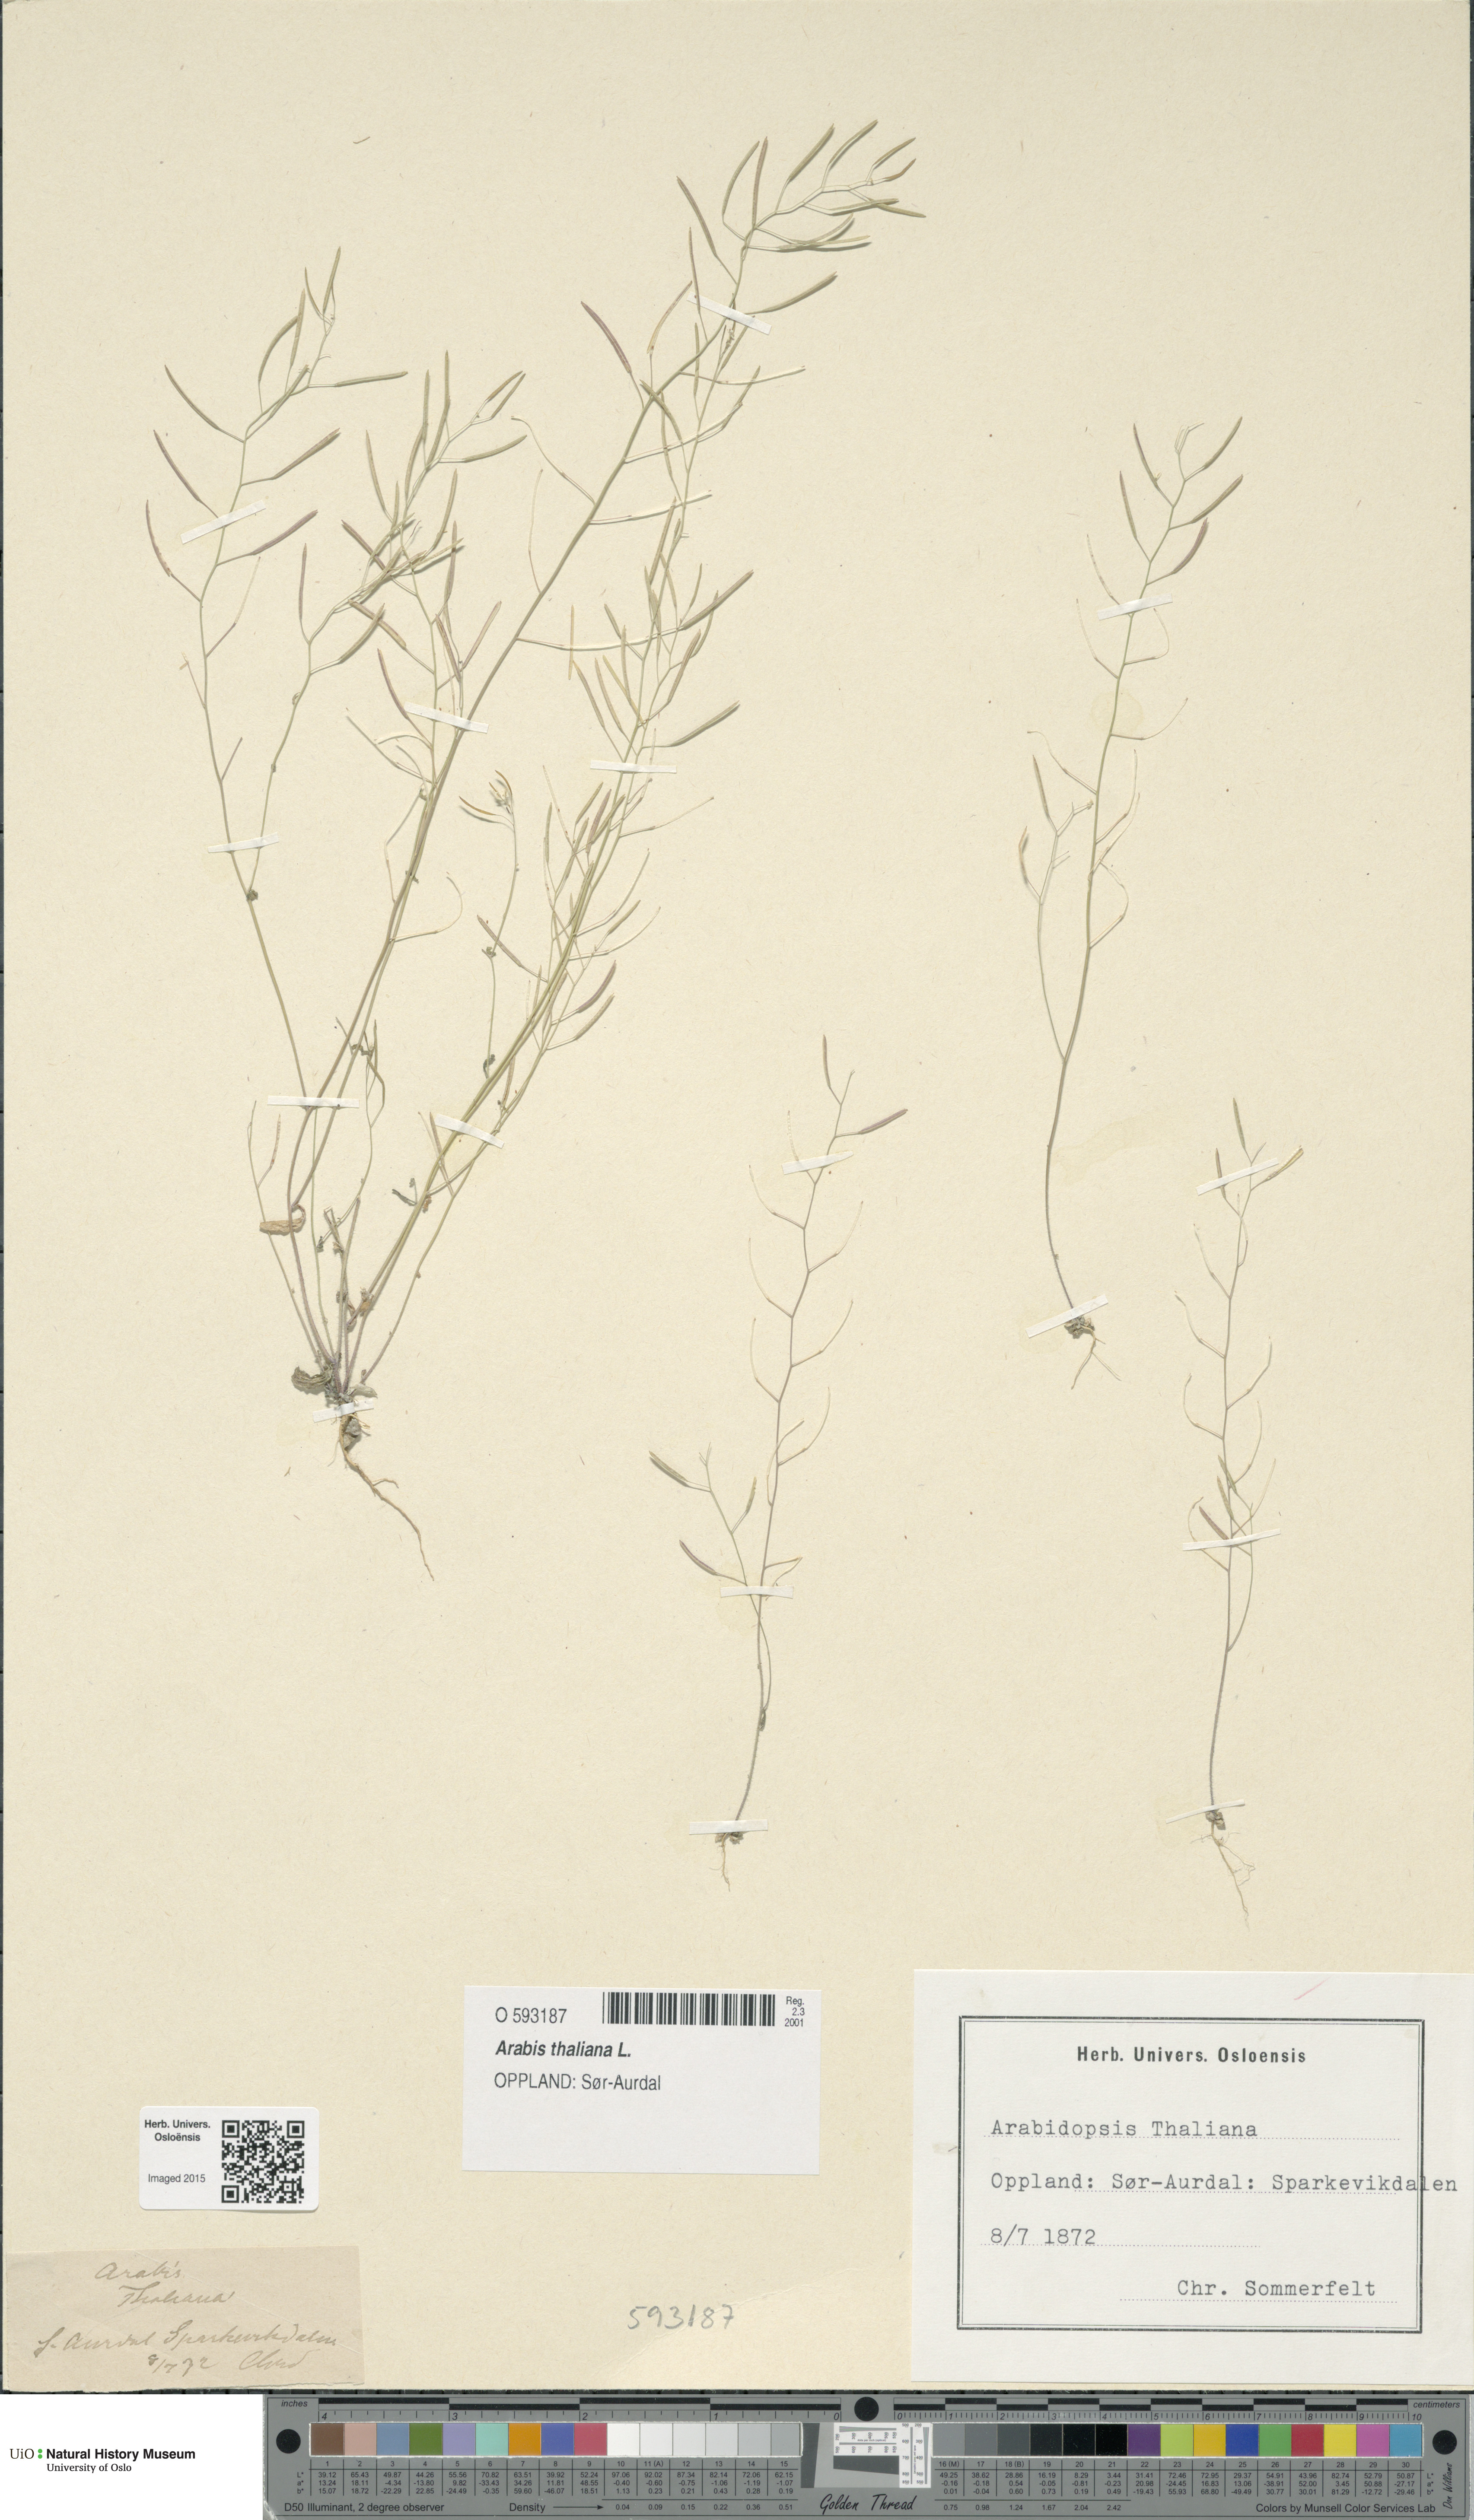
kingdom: Plantae
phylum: Tracheophyta
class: Magnoliopsida
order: Brassicales
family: Brassicaceae
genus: Arabidopsis
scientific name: Arabidopsis thaliana
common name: Thale cress
